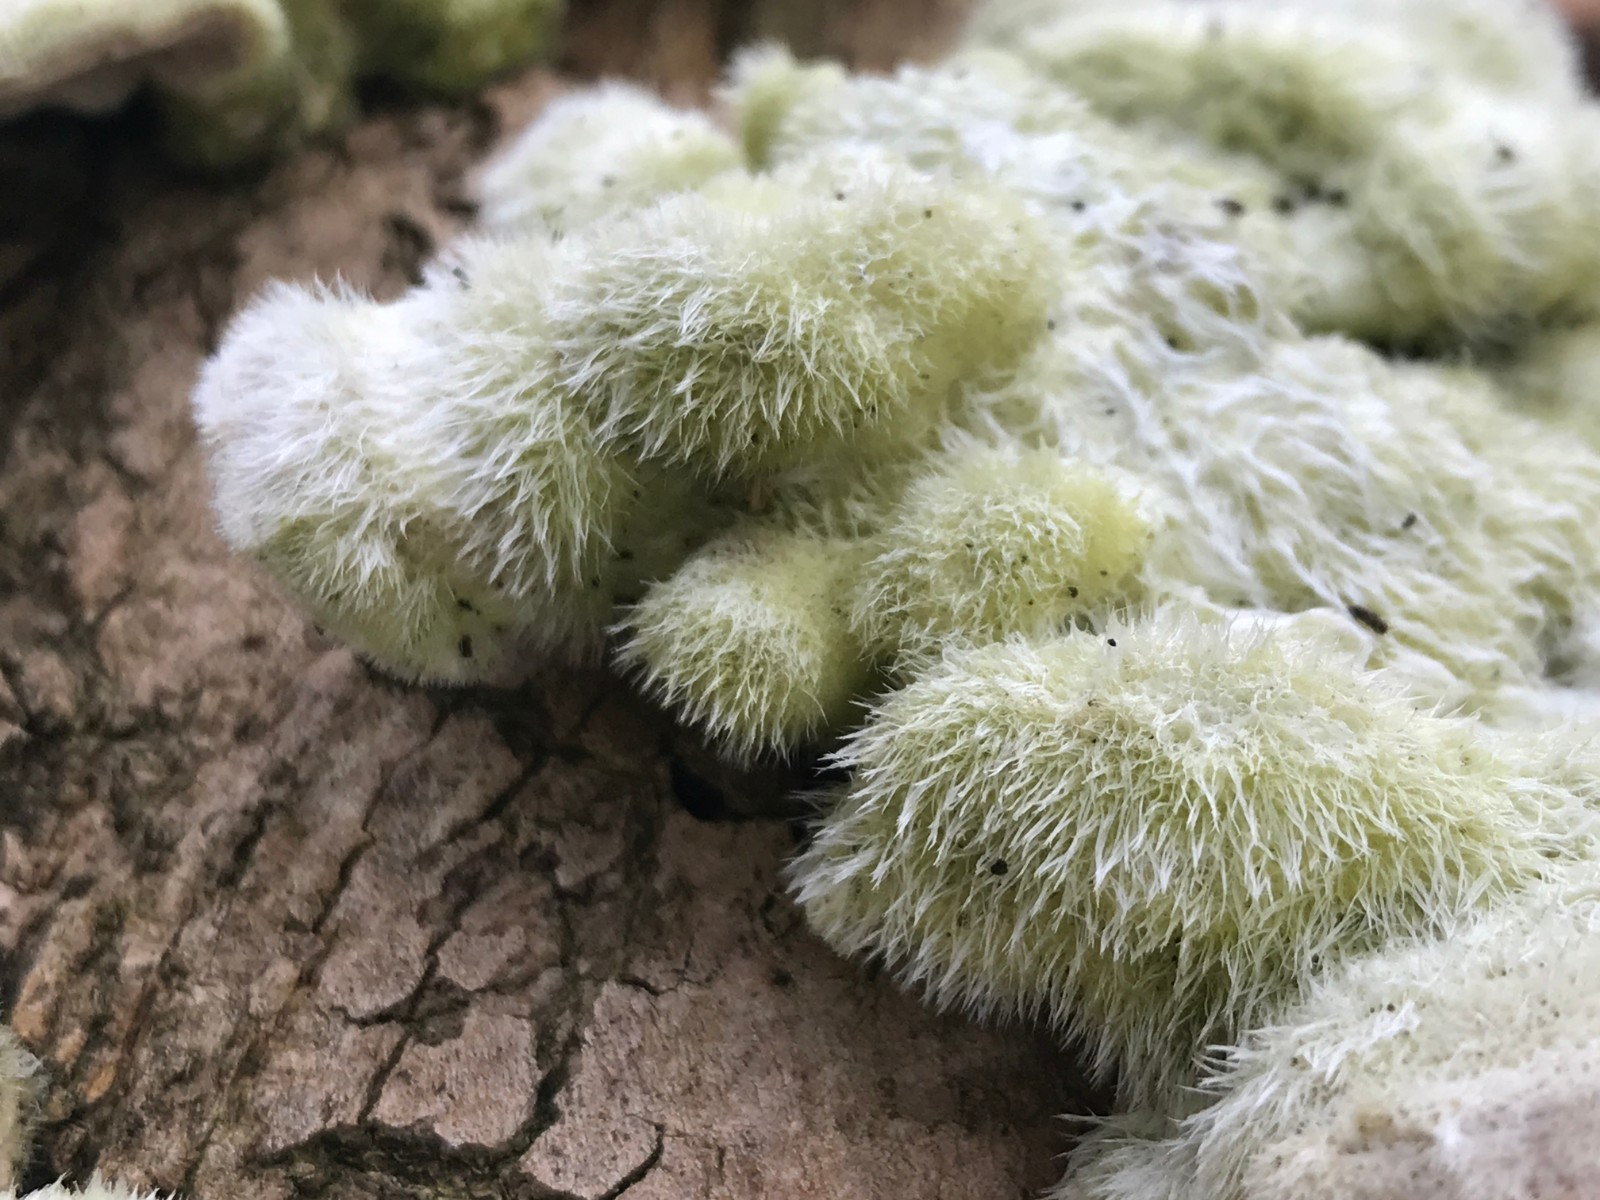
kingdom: Fungi
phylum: Basidiomycota
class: Agaricomycetes
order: Polyporales
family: Polyporaceae
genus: Trametes
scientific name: Trametes hirsuta
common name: håret læderporesvamp
